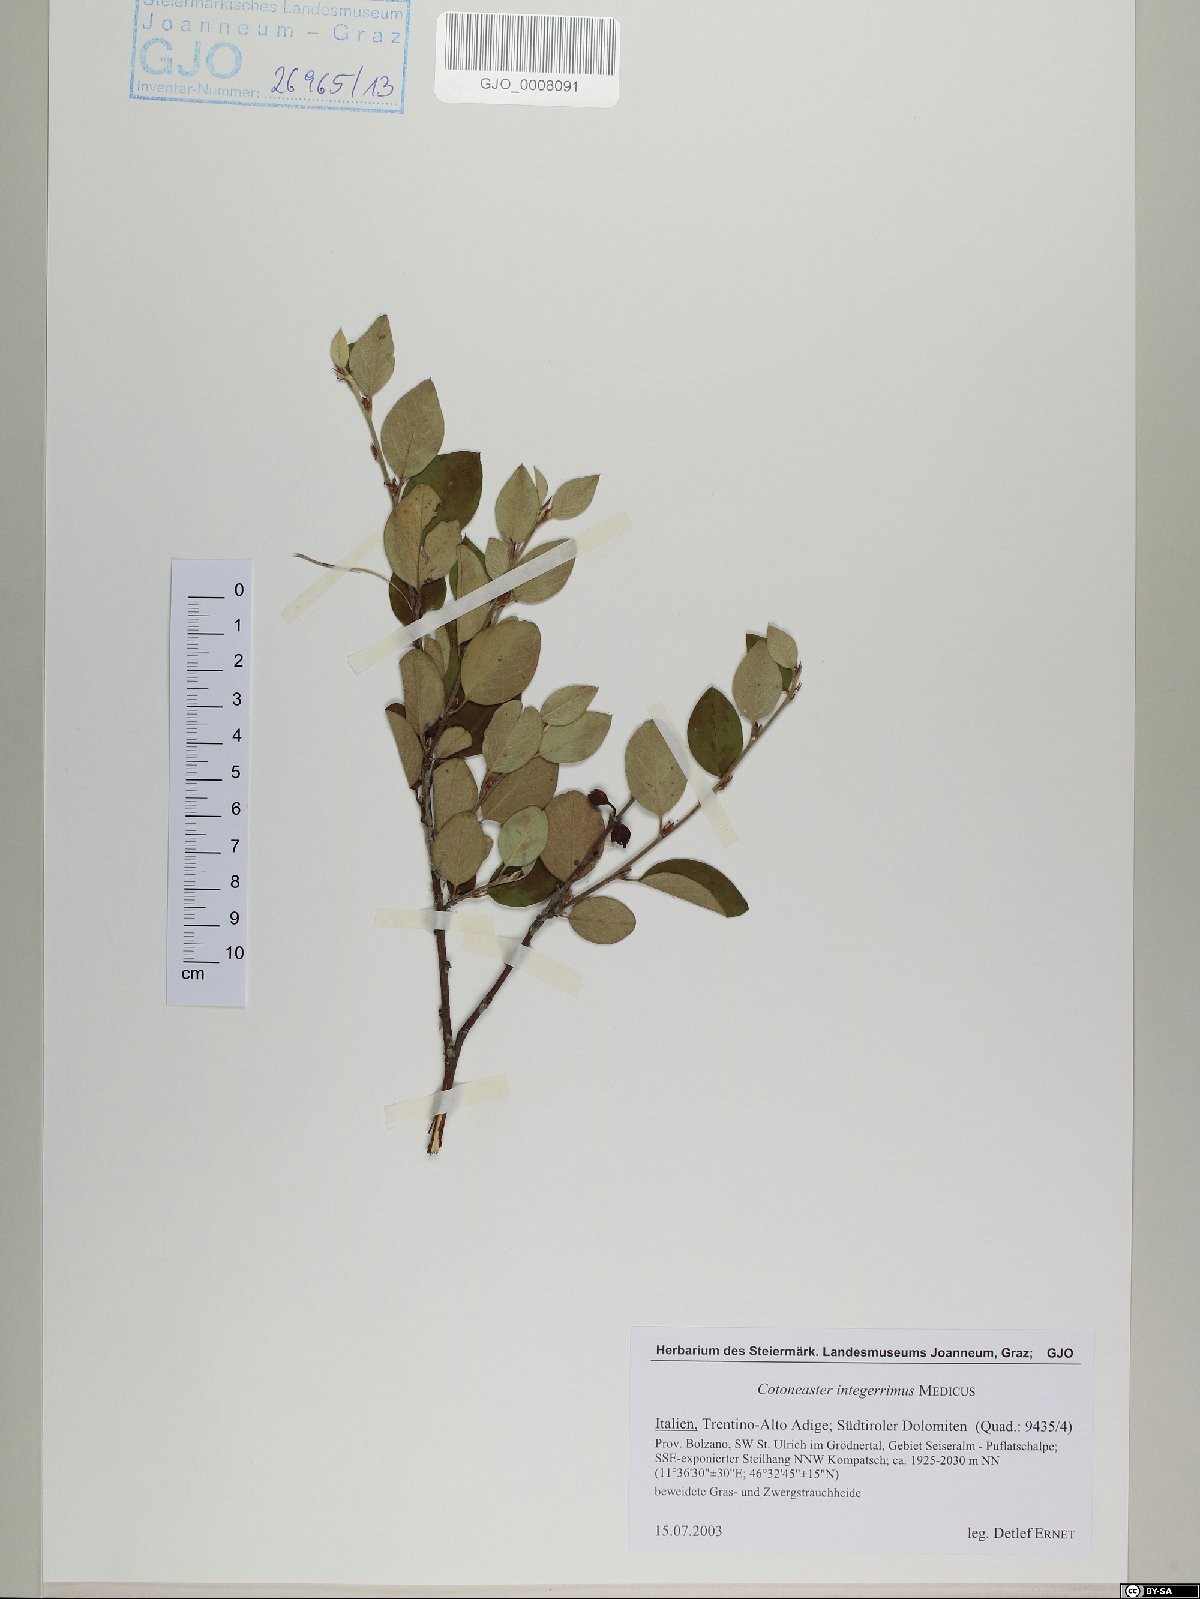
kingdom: Plantae
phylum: Tracheophyta
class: Magnoliopsida
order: Rosales
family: Rosaceae
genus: Cotoneaster
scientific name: Cotoneaster integerrimus
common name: Wild cotoneaster
